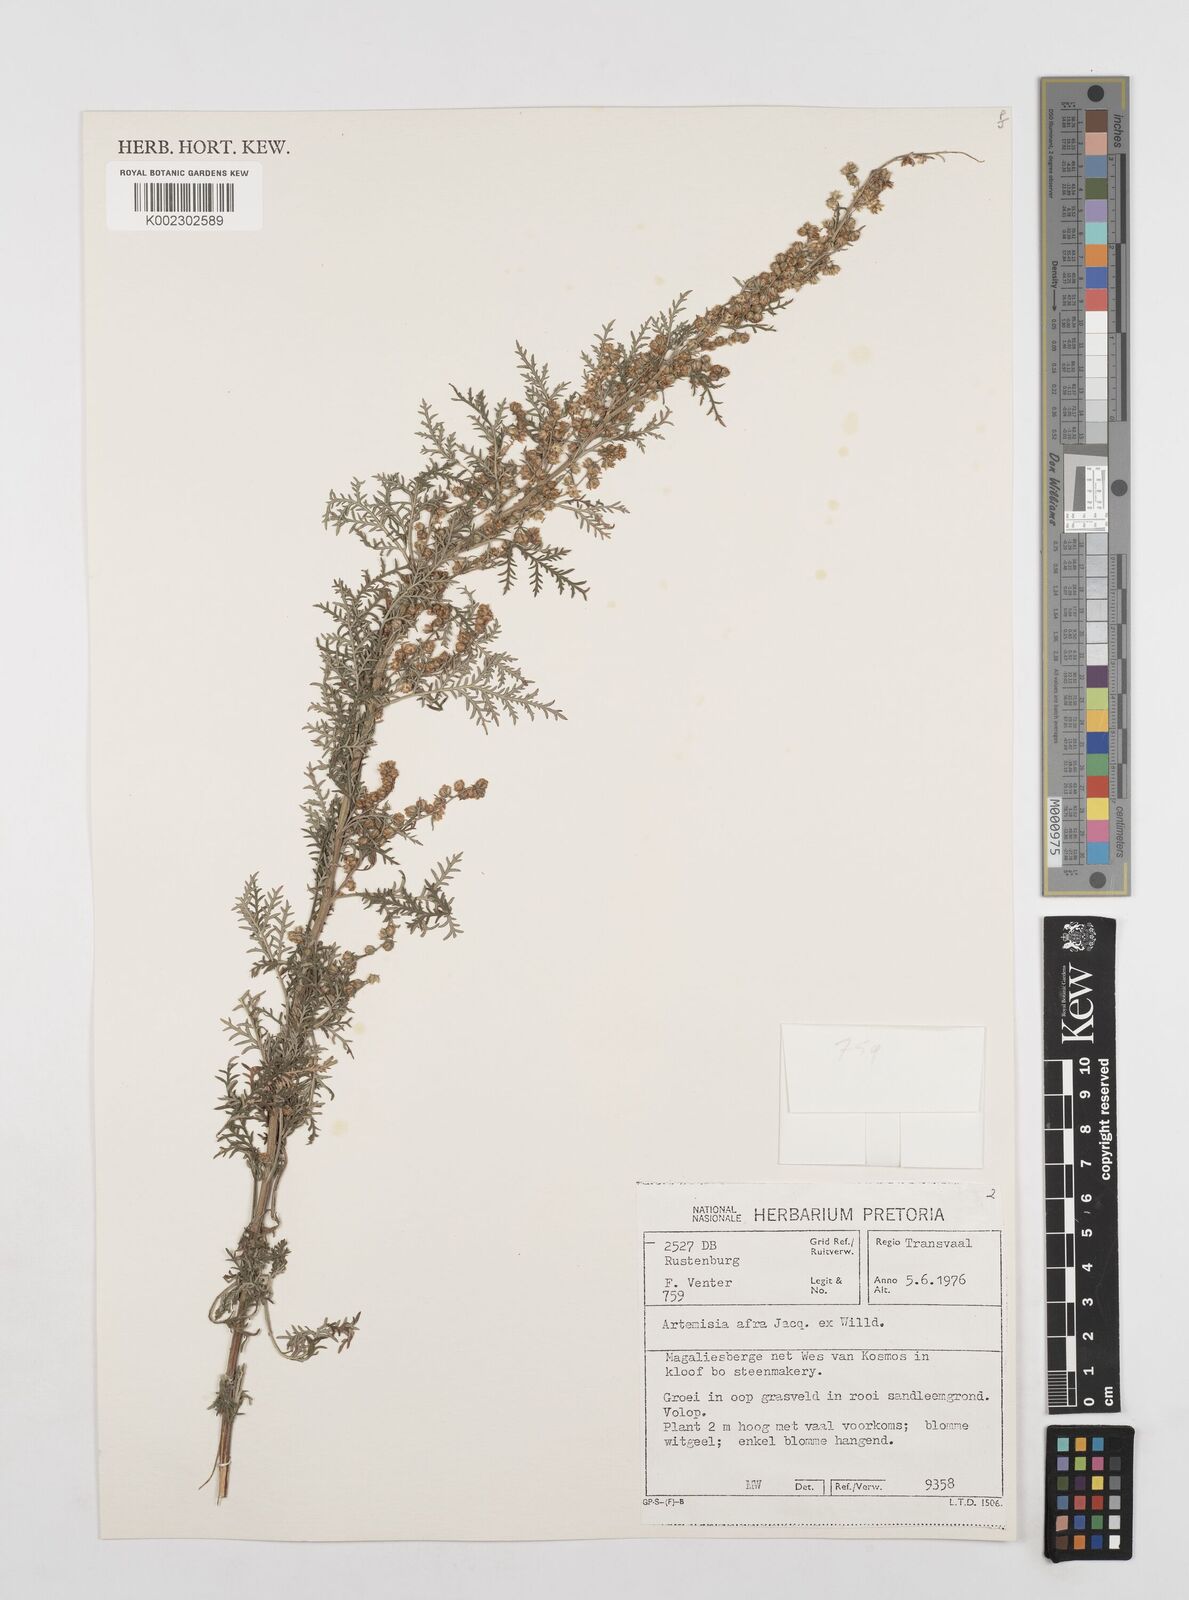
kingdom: Plantae
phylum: Tracheophyta
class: Magnoliopsida
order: Asterales
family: Asteraceae
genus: Artemisia
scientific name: Artemisia afra
